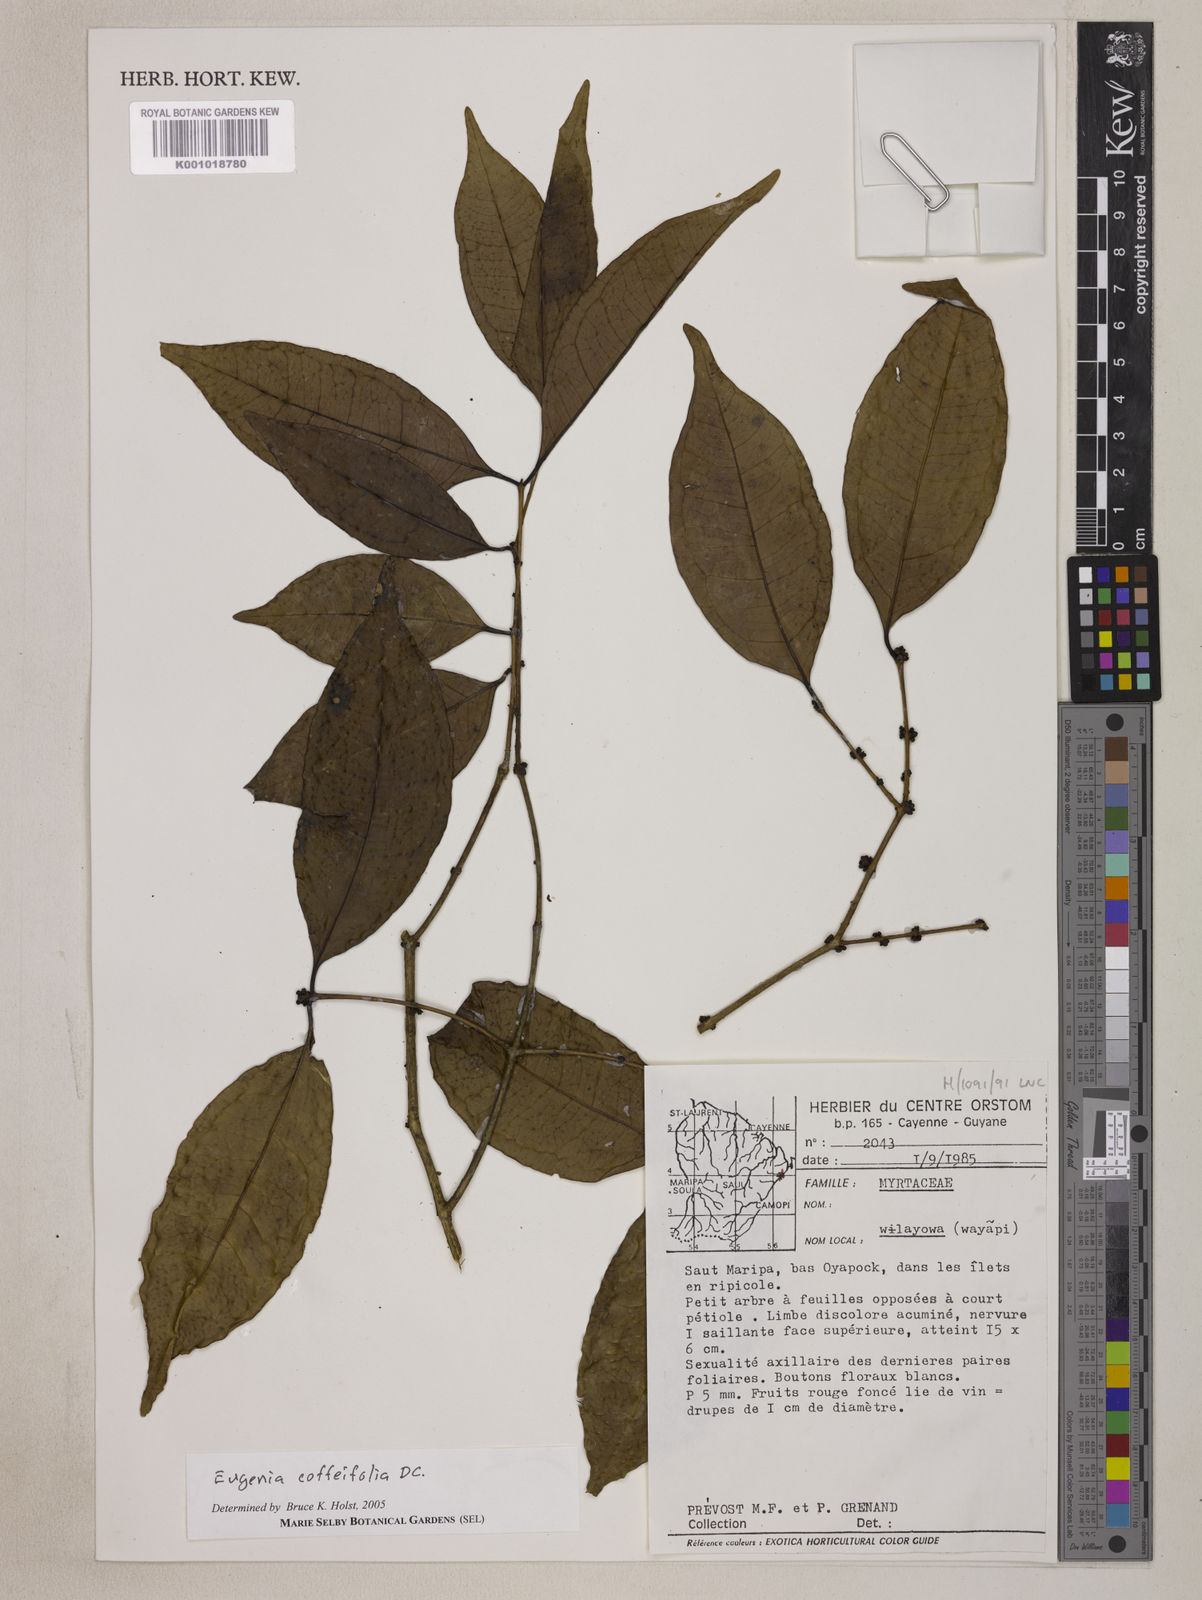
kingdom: Plantae
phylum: Tracheophyta
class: Magnoliopsida
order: Myrtales
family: Myrtaceae
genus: Eugenia
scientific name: Eugenia coffeifolia
